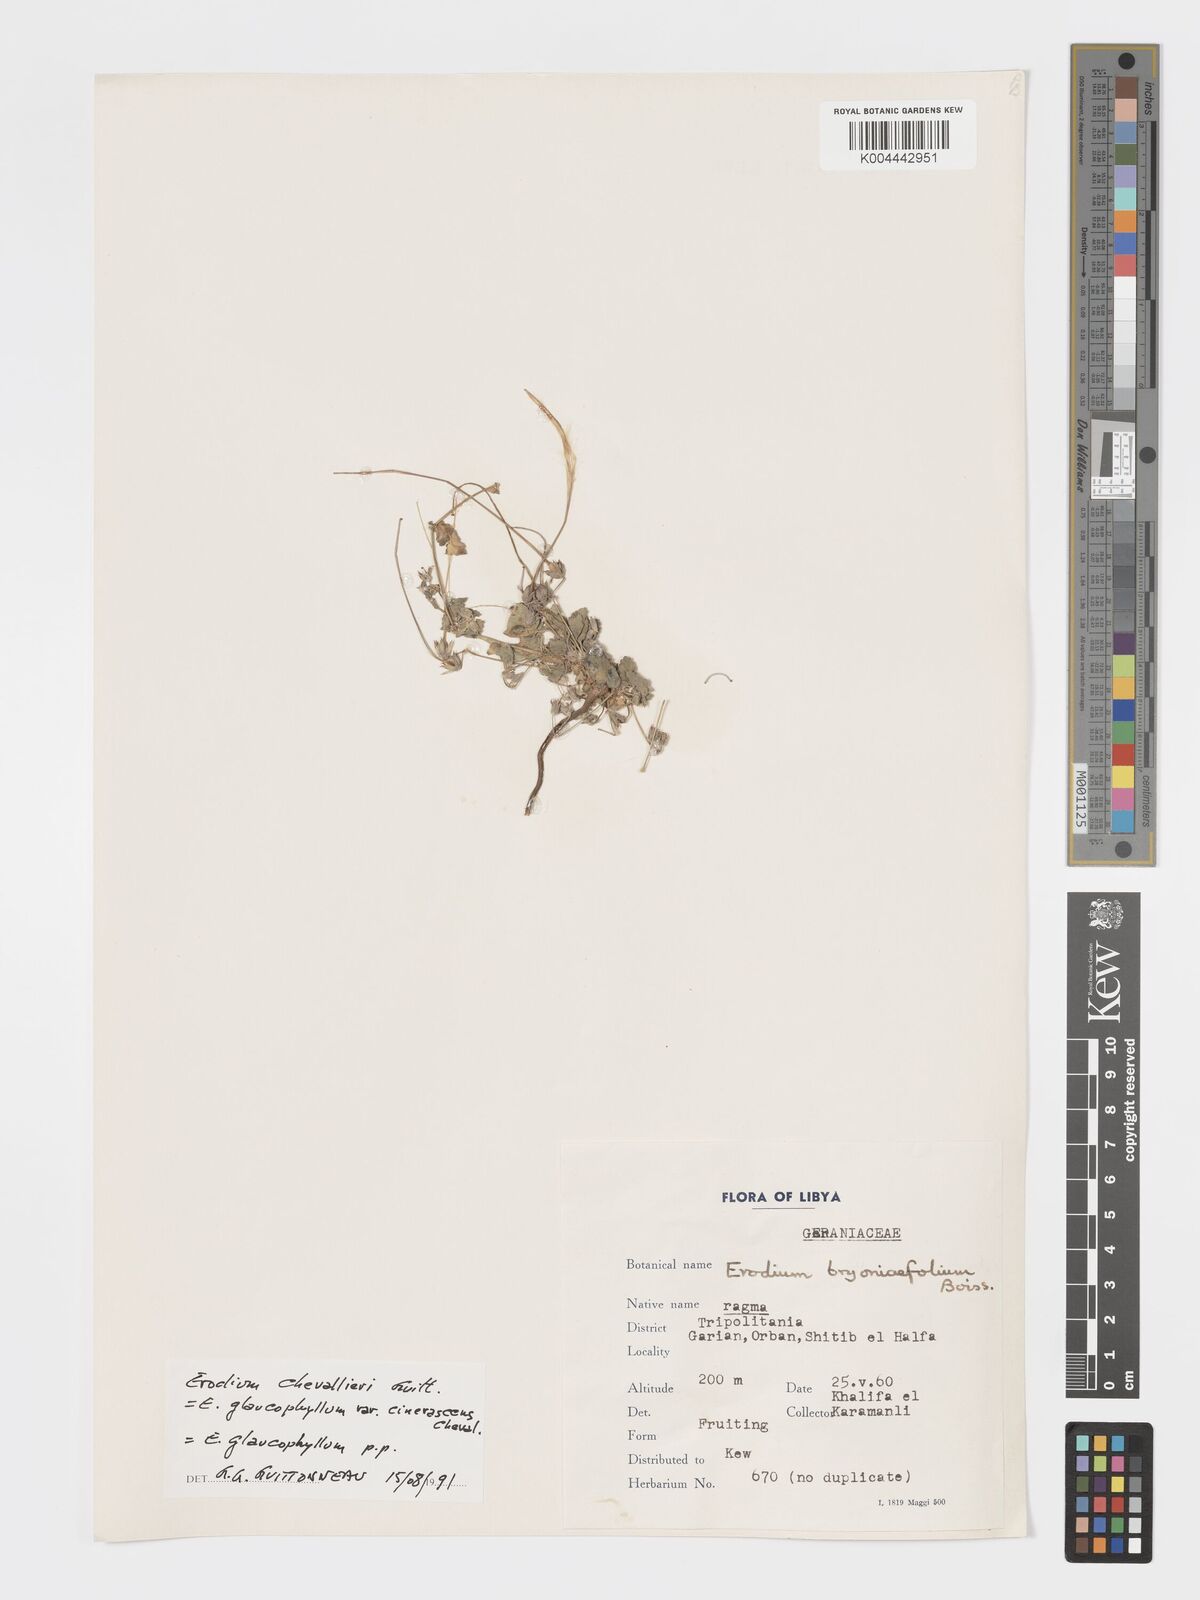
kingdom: Plantae
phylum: Tracheophyta
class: Magnoliopsida
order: Geraniales
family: Geraniaceae
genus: Erodium
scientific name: Erodium chevallieri
